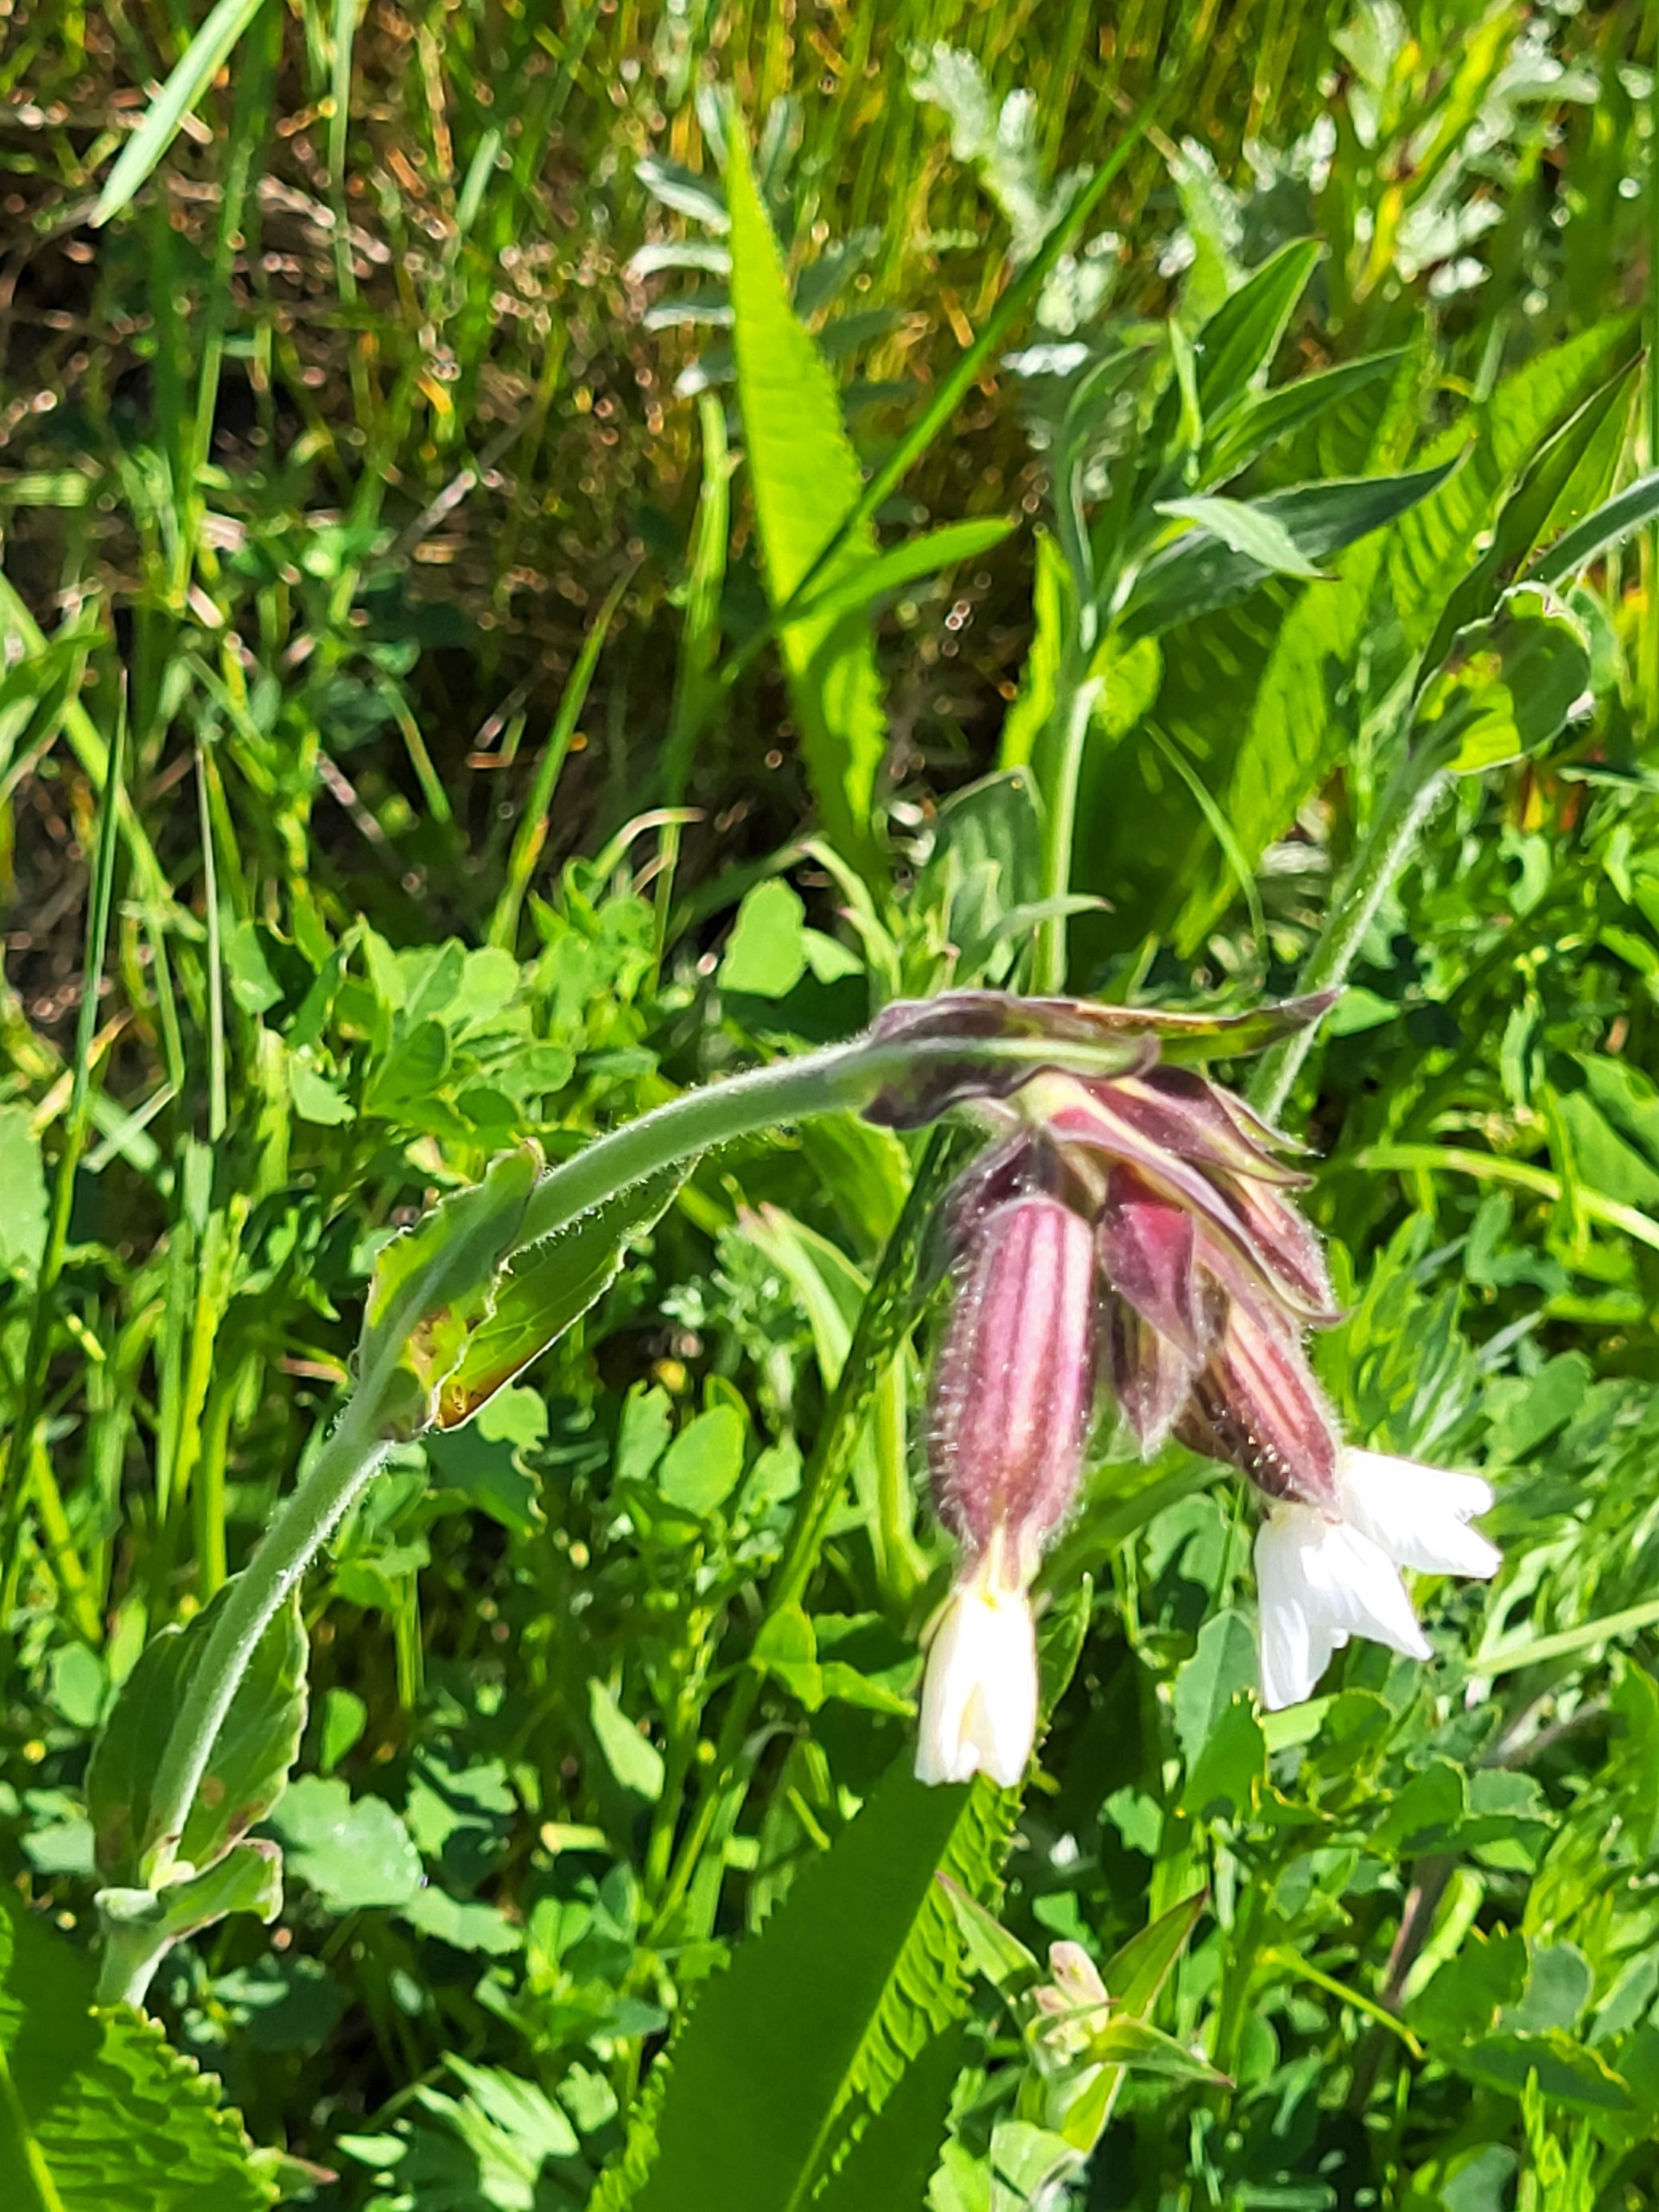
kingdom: Plantae
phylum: Tracheophyta
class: Magnoliopsida
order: Caryophyllales
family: Caryophyllaceae
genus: Silene
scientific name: Silene latifolia
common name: Aftenpragtstjerne
